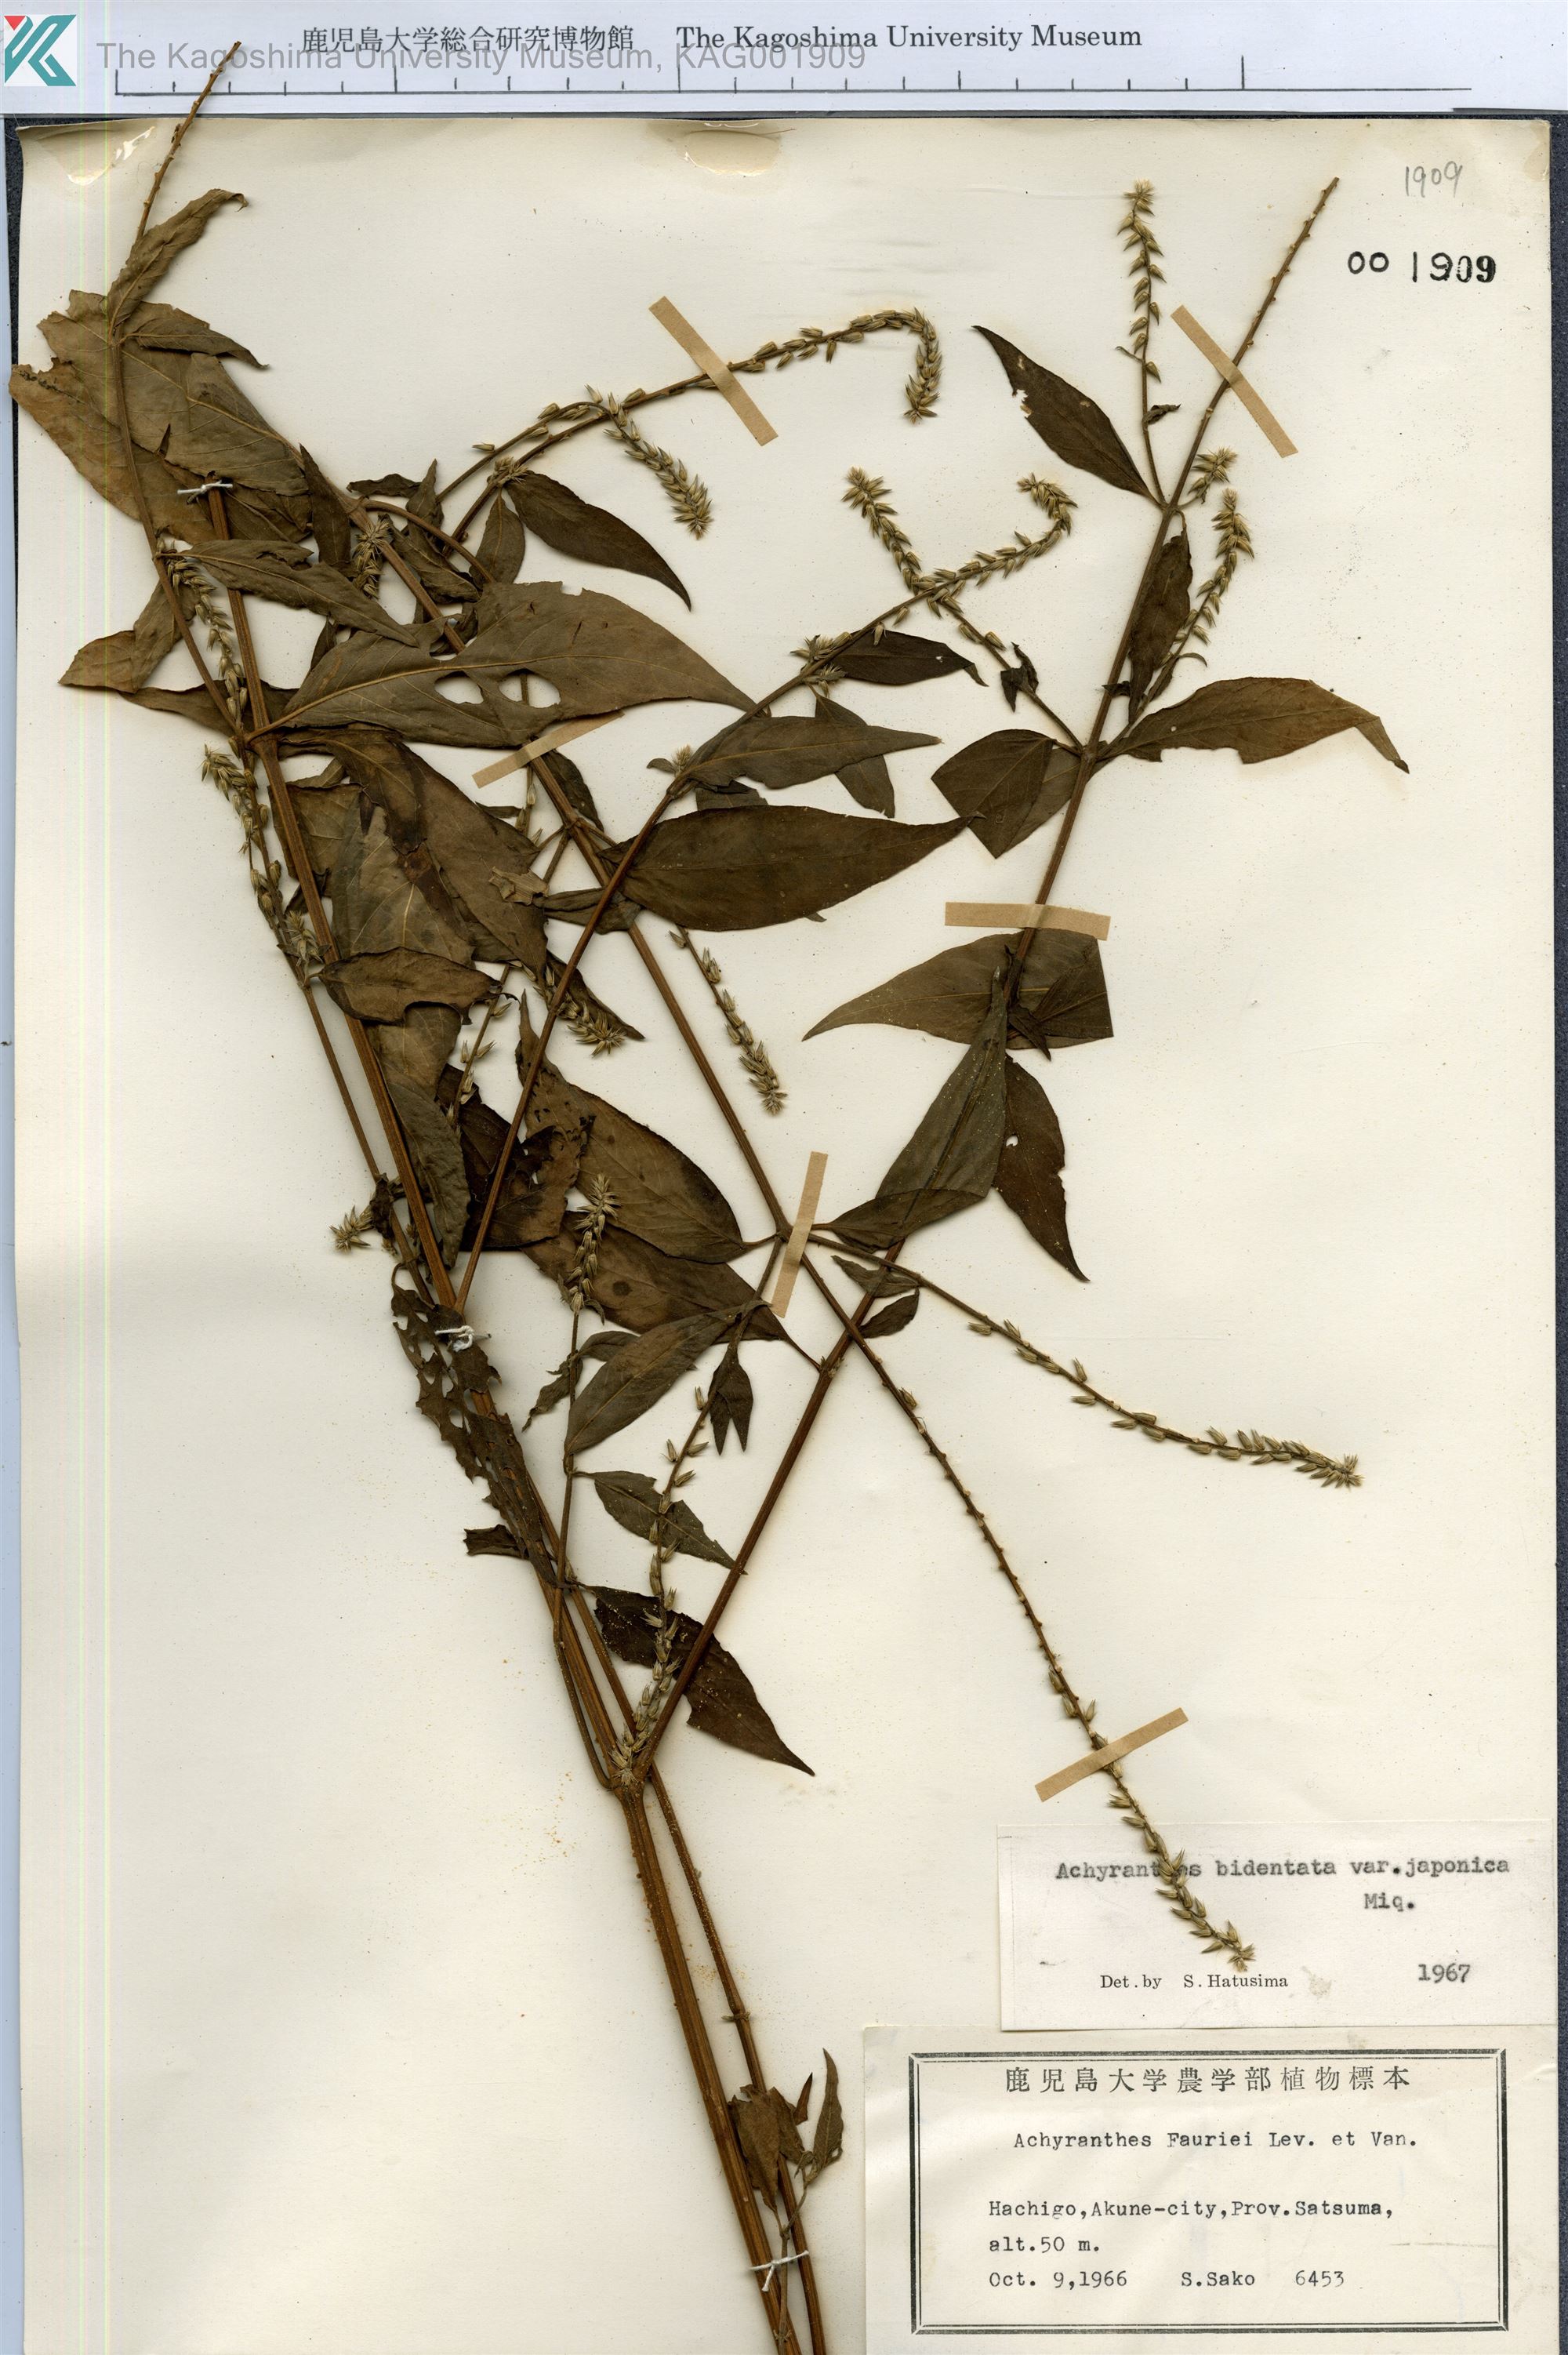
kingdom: Plantae
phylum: Tracheophyta
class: Magnoliopsida
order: Caryophyllales
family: Amaranthaceae
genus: Achyranthes
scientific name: Achyranthes bidentata
